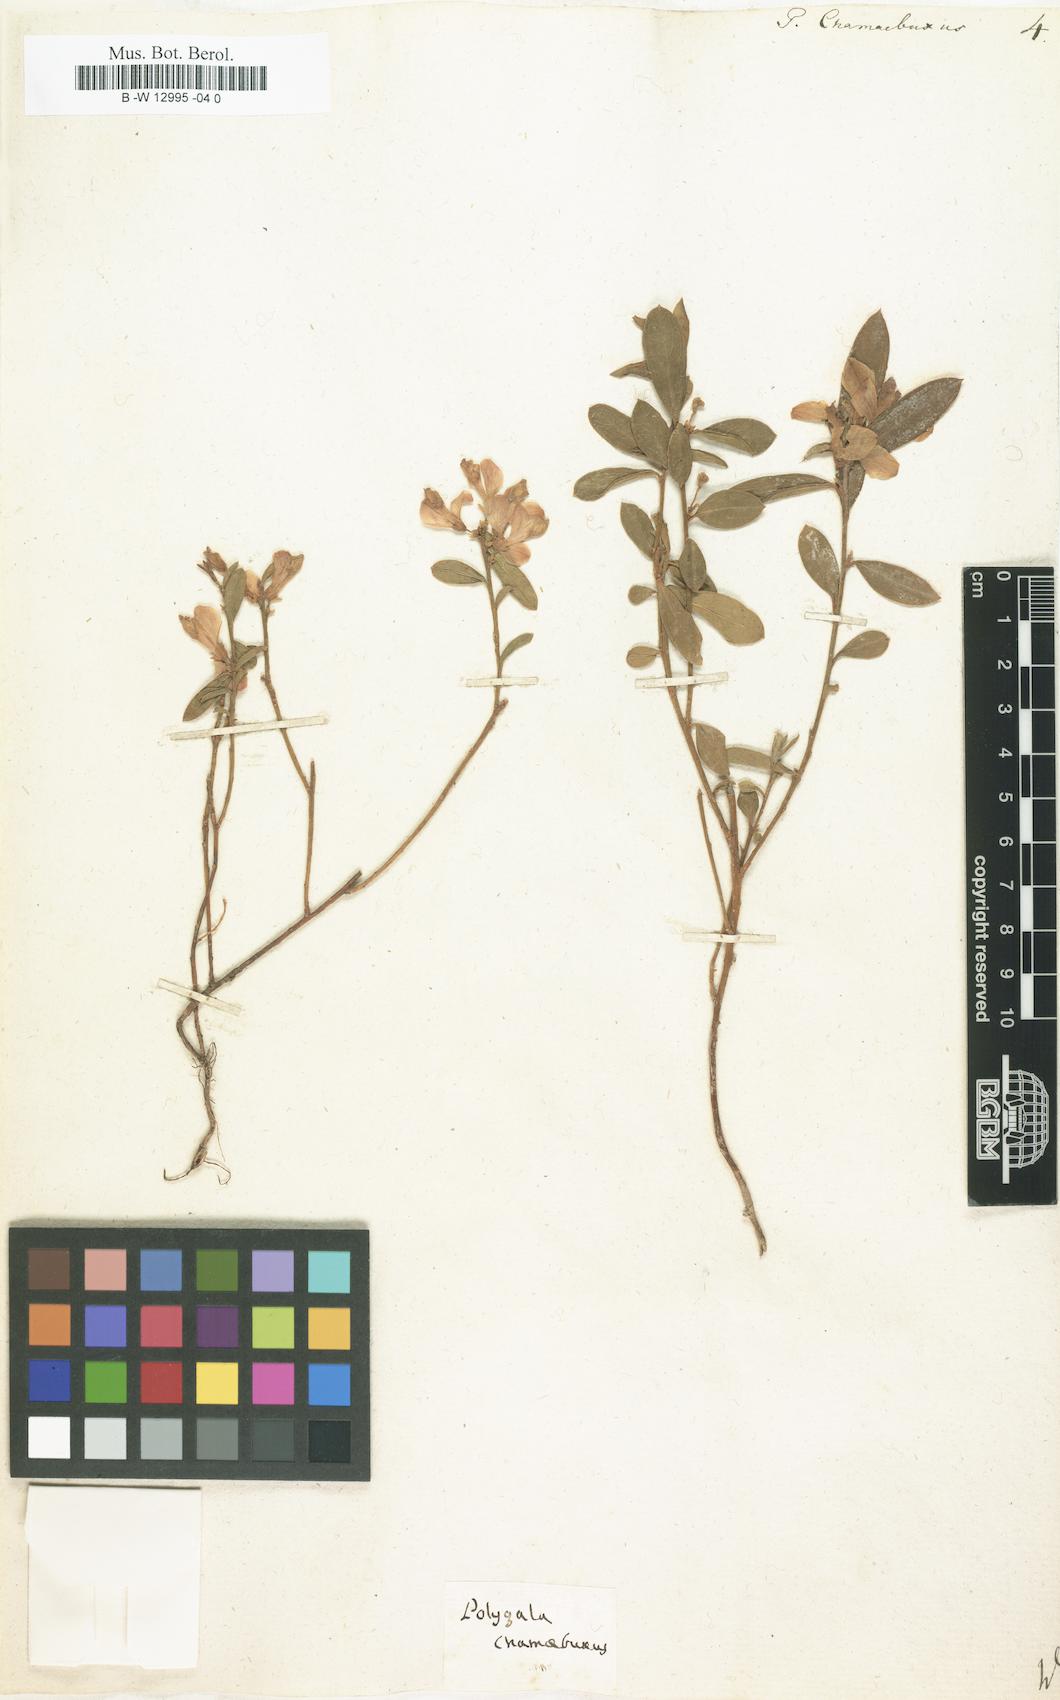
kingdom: Plantae
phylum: Tracheophyta
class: Magnoliopsida
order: Fabales
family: Polygalaceae
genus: Polygaloides
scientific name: Polygaloides chamaebuxus
